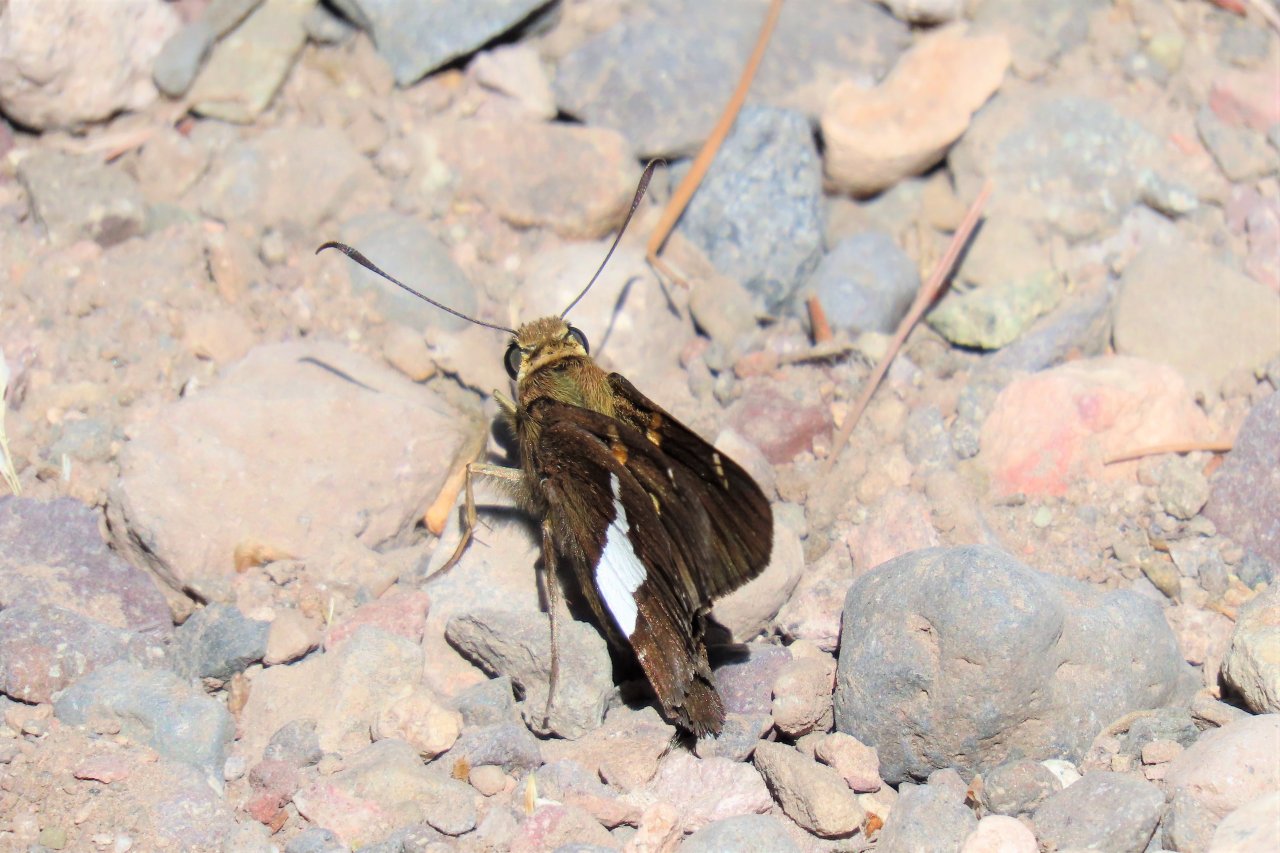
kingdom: Animalia
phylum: Arthropoda
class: Insecta
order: Lepidoptera
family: Hesperiidae
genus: Epargyreus
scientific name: Epargyreus clarus
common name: Silver-spotted Skipper
